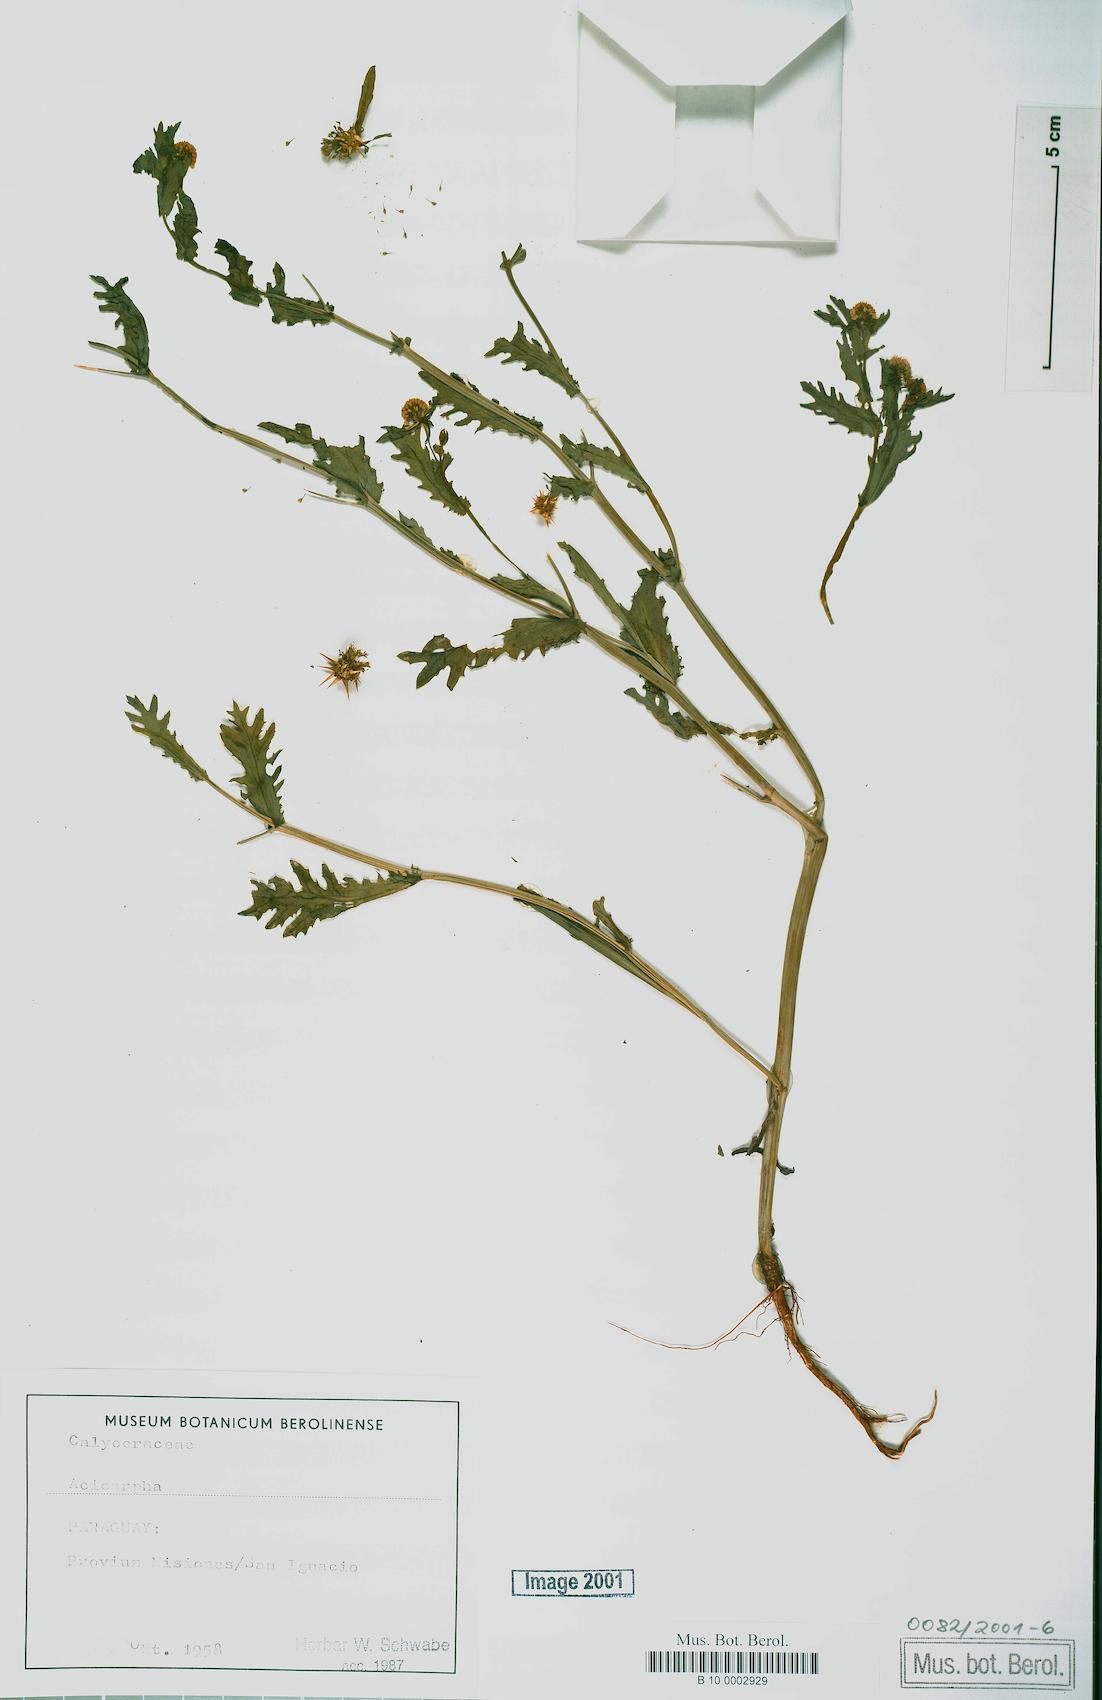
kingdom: Plantae
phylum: Tracheophyta
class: Magnoliopsida
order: Asterales
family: Calyceraceae
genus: Acicarpha
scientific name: Acicarpha
